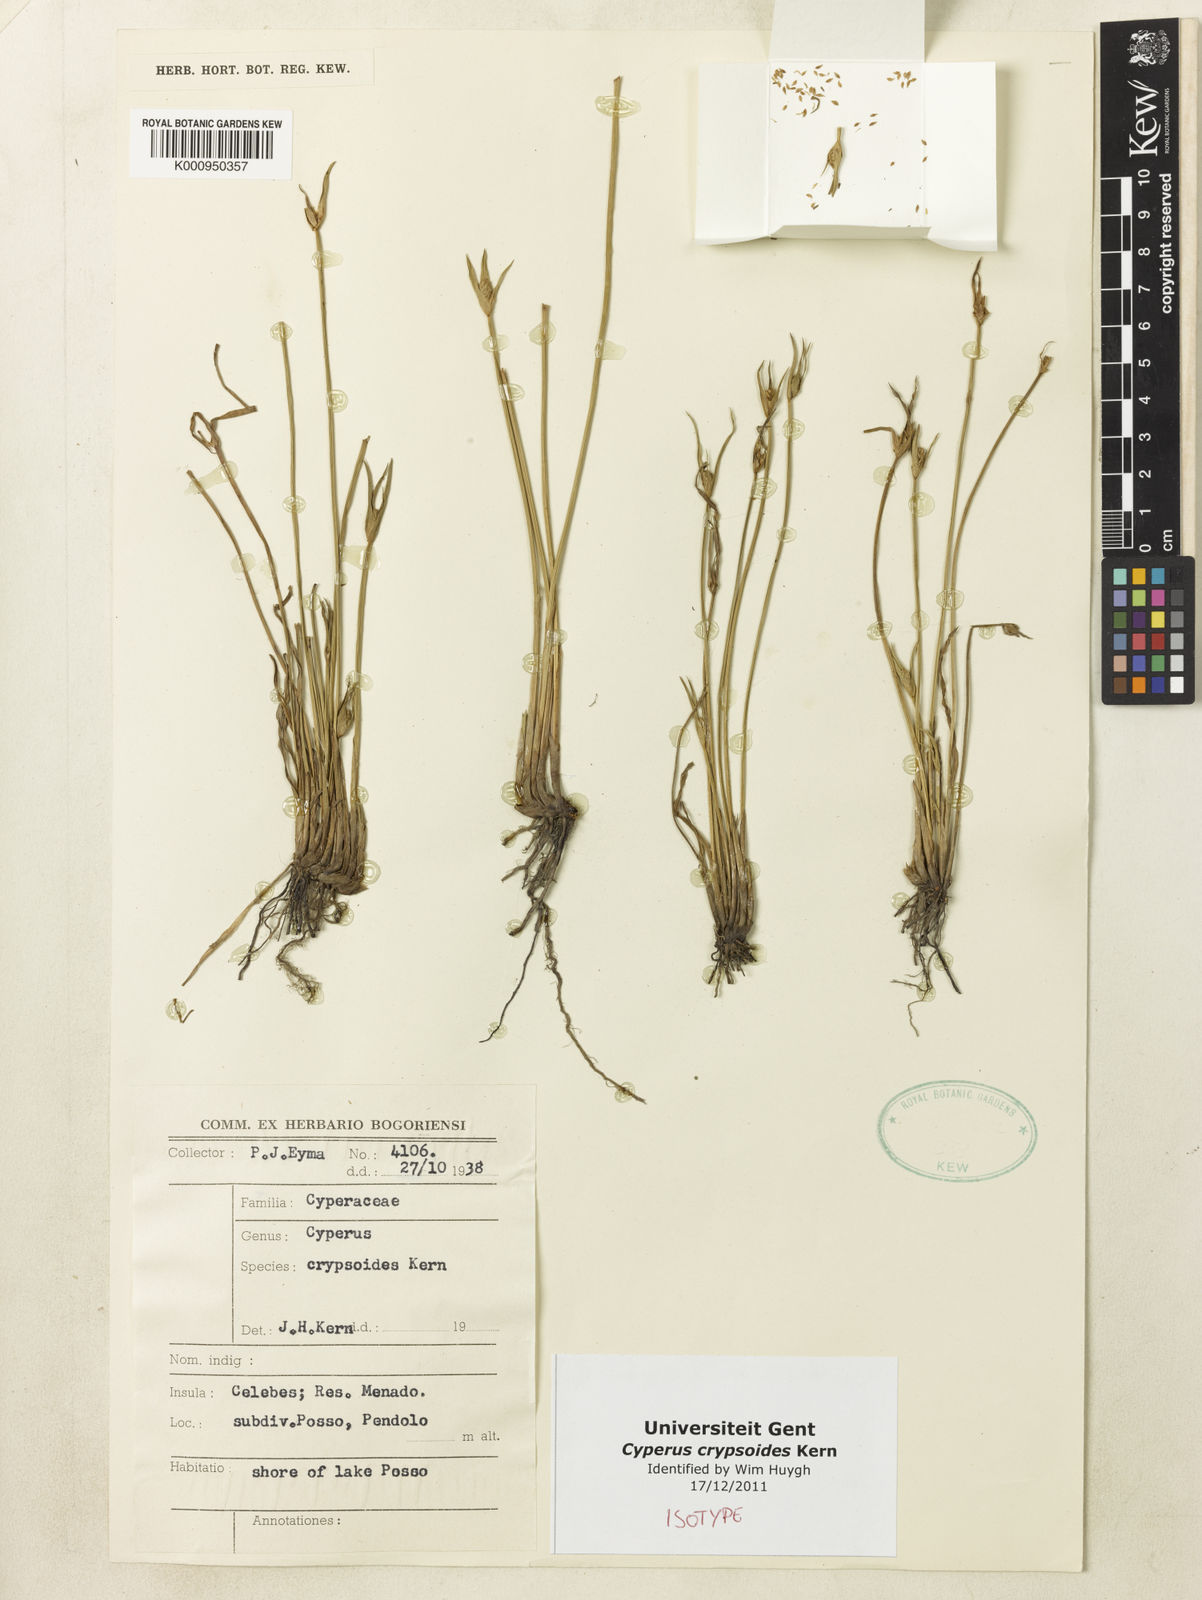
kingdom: Plantae
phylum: Tracheophyta
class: Liliopsida
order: Poales
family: Cyperaceae
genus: Cyperus
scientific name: Cyperus crypsoides
